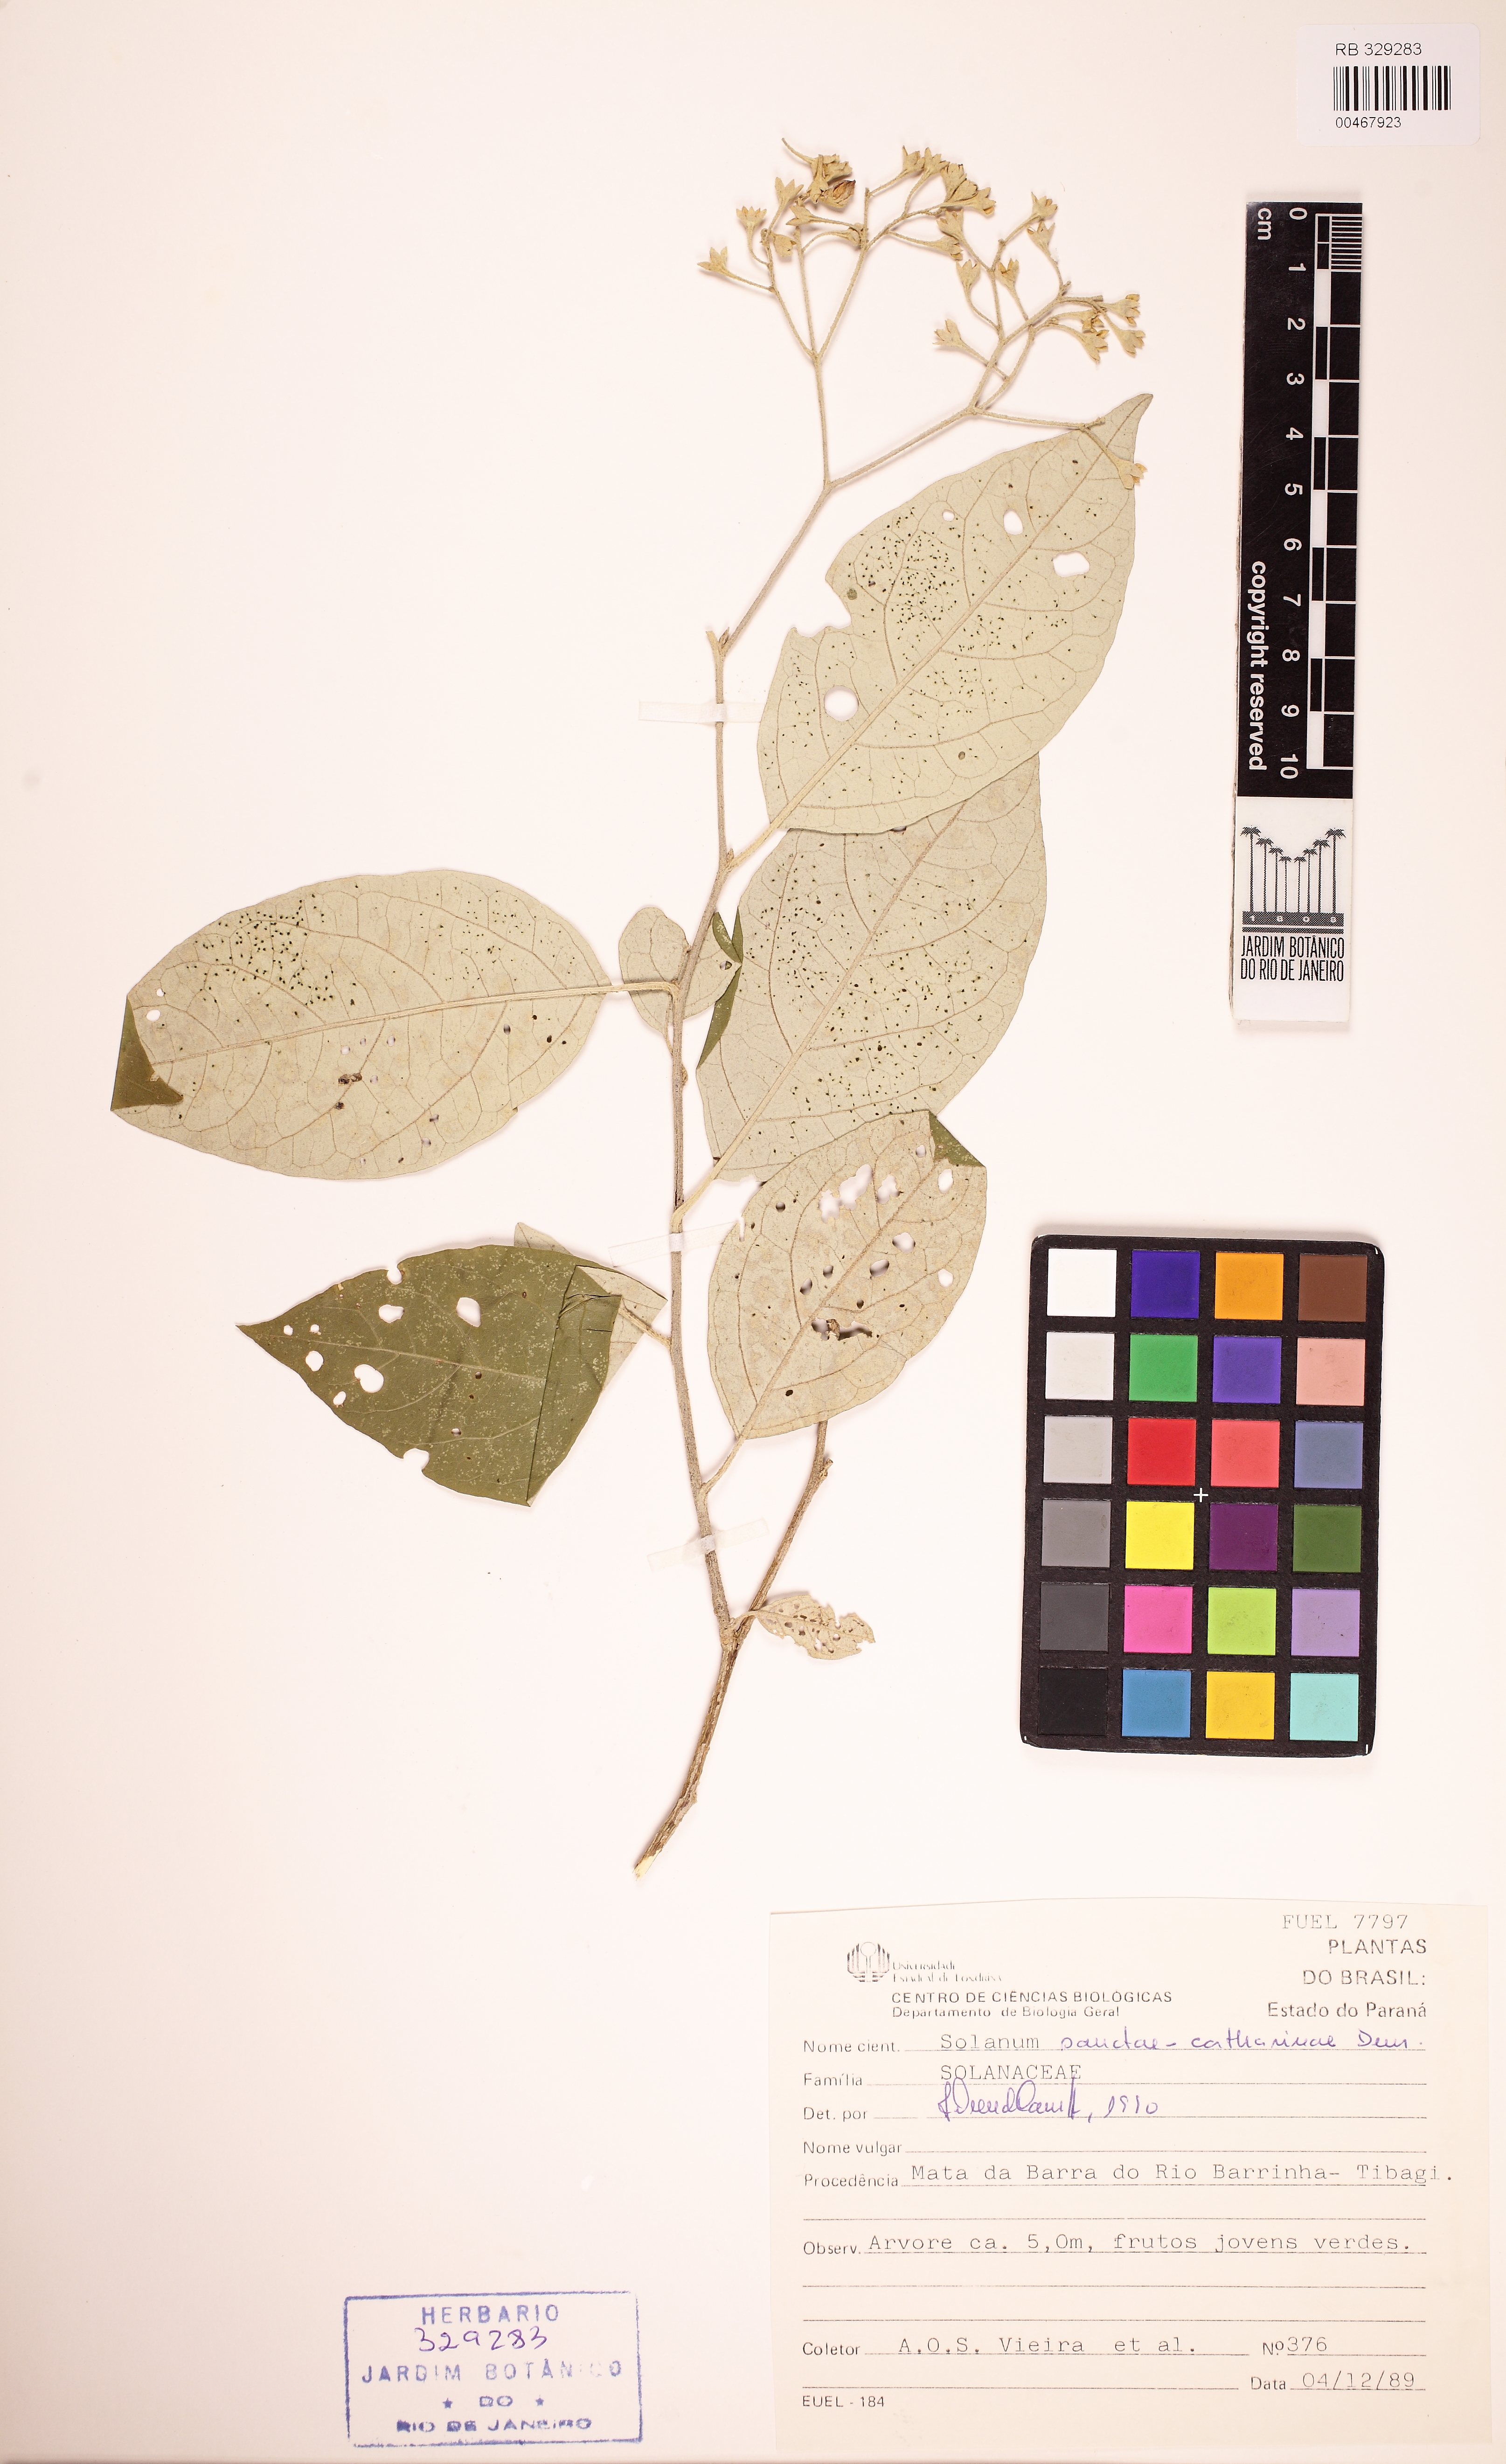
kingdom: Plantae
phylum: Tracheophyta
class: Magnoliopsida
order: Solanales
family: Solanaceae
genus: Solanum
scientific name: Solanum sanctae-catharinae
